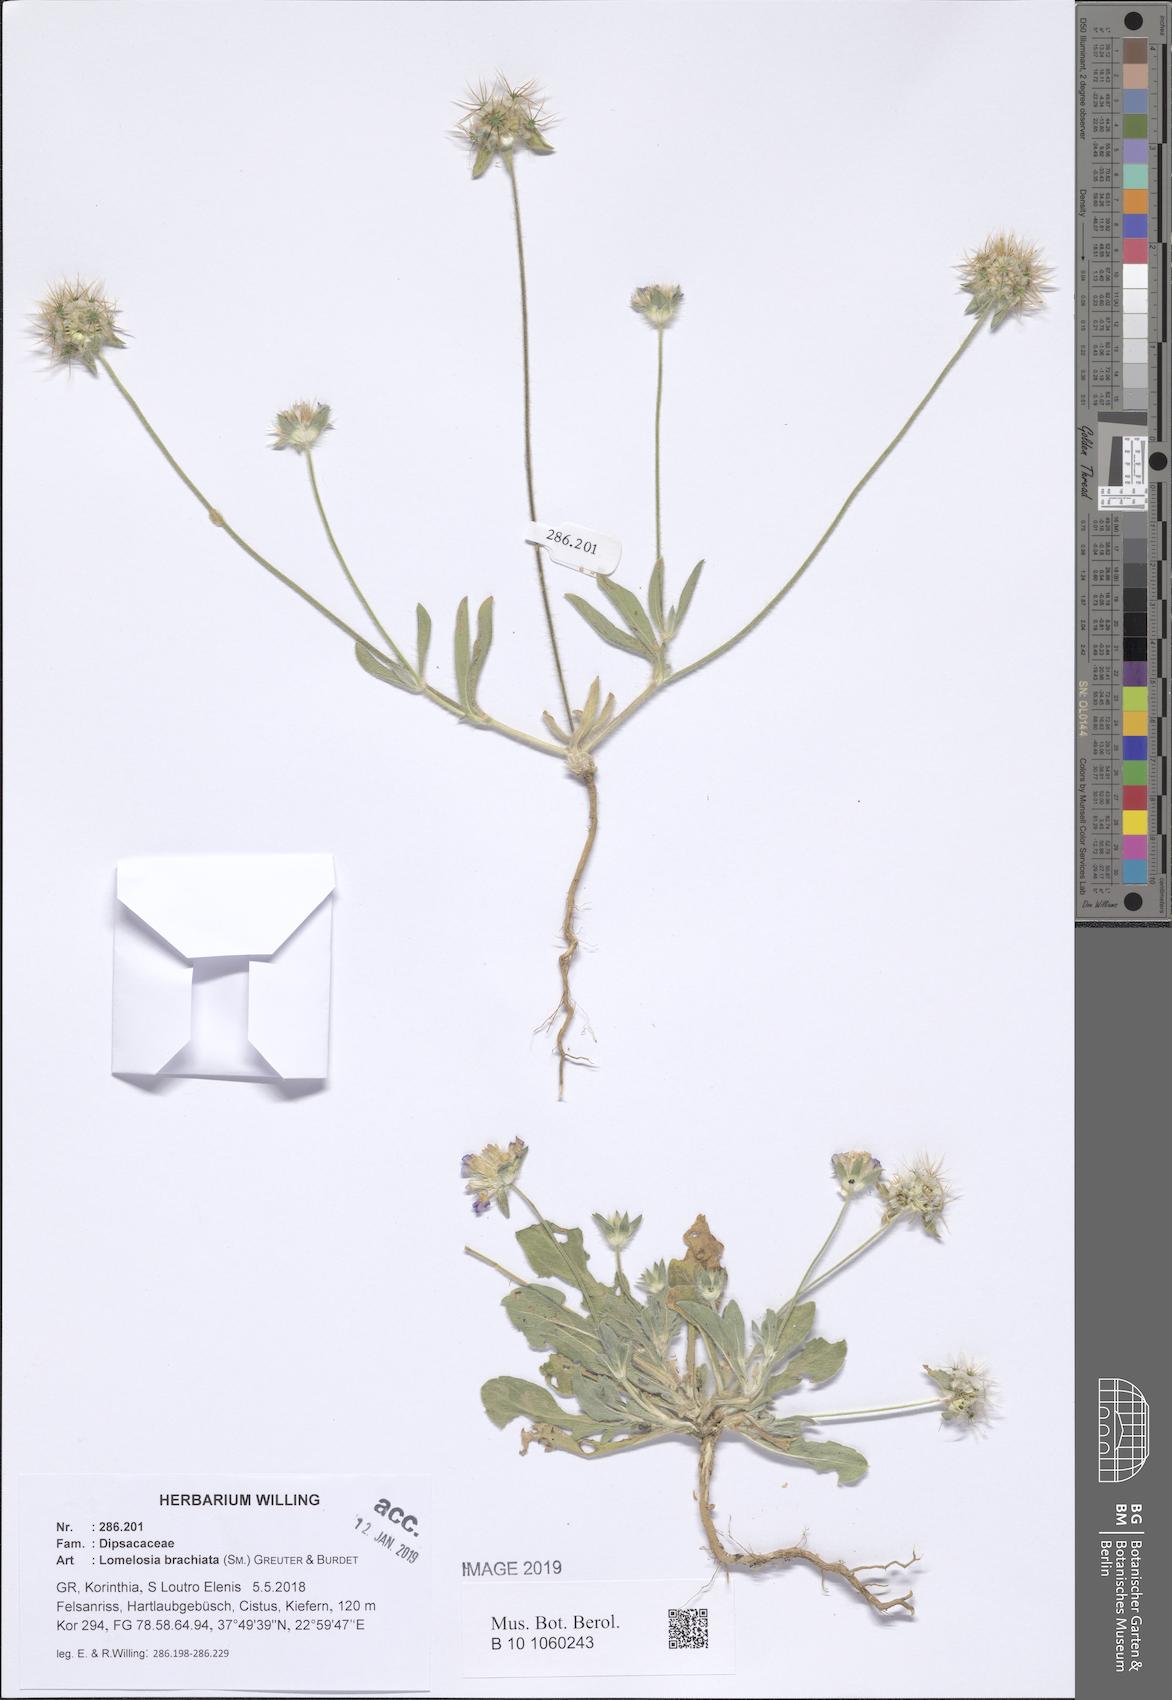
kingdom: Plantae
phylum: Tracheophyta
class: Magnoliopsida
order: Dipsacales
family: Caprifoliaceae
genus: Lomelosia
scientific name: Lomelosia brachiata
